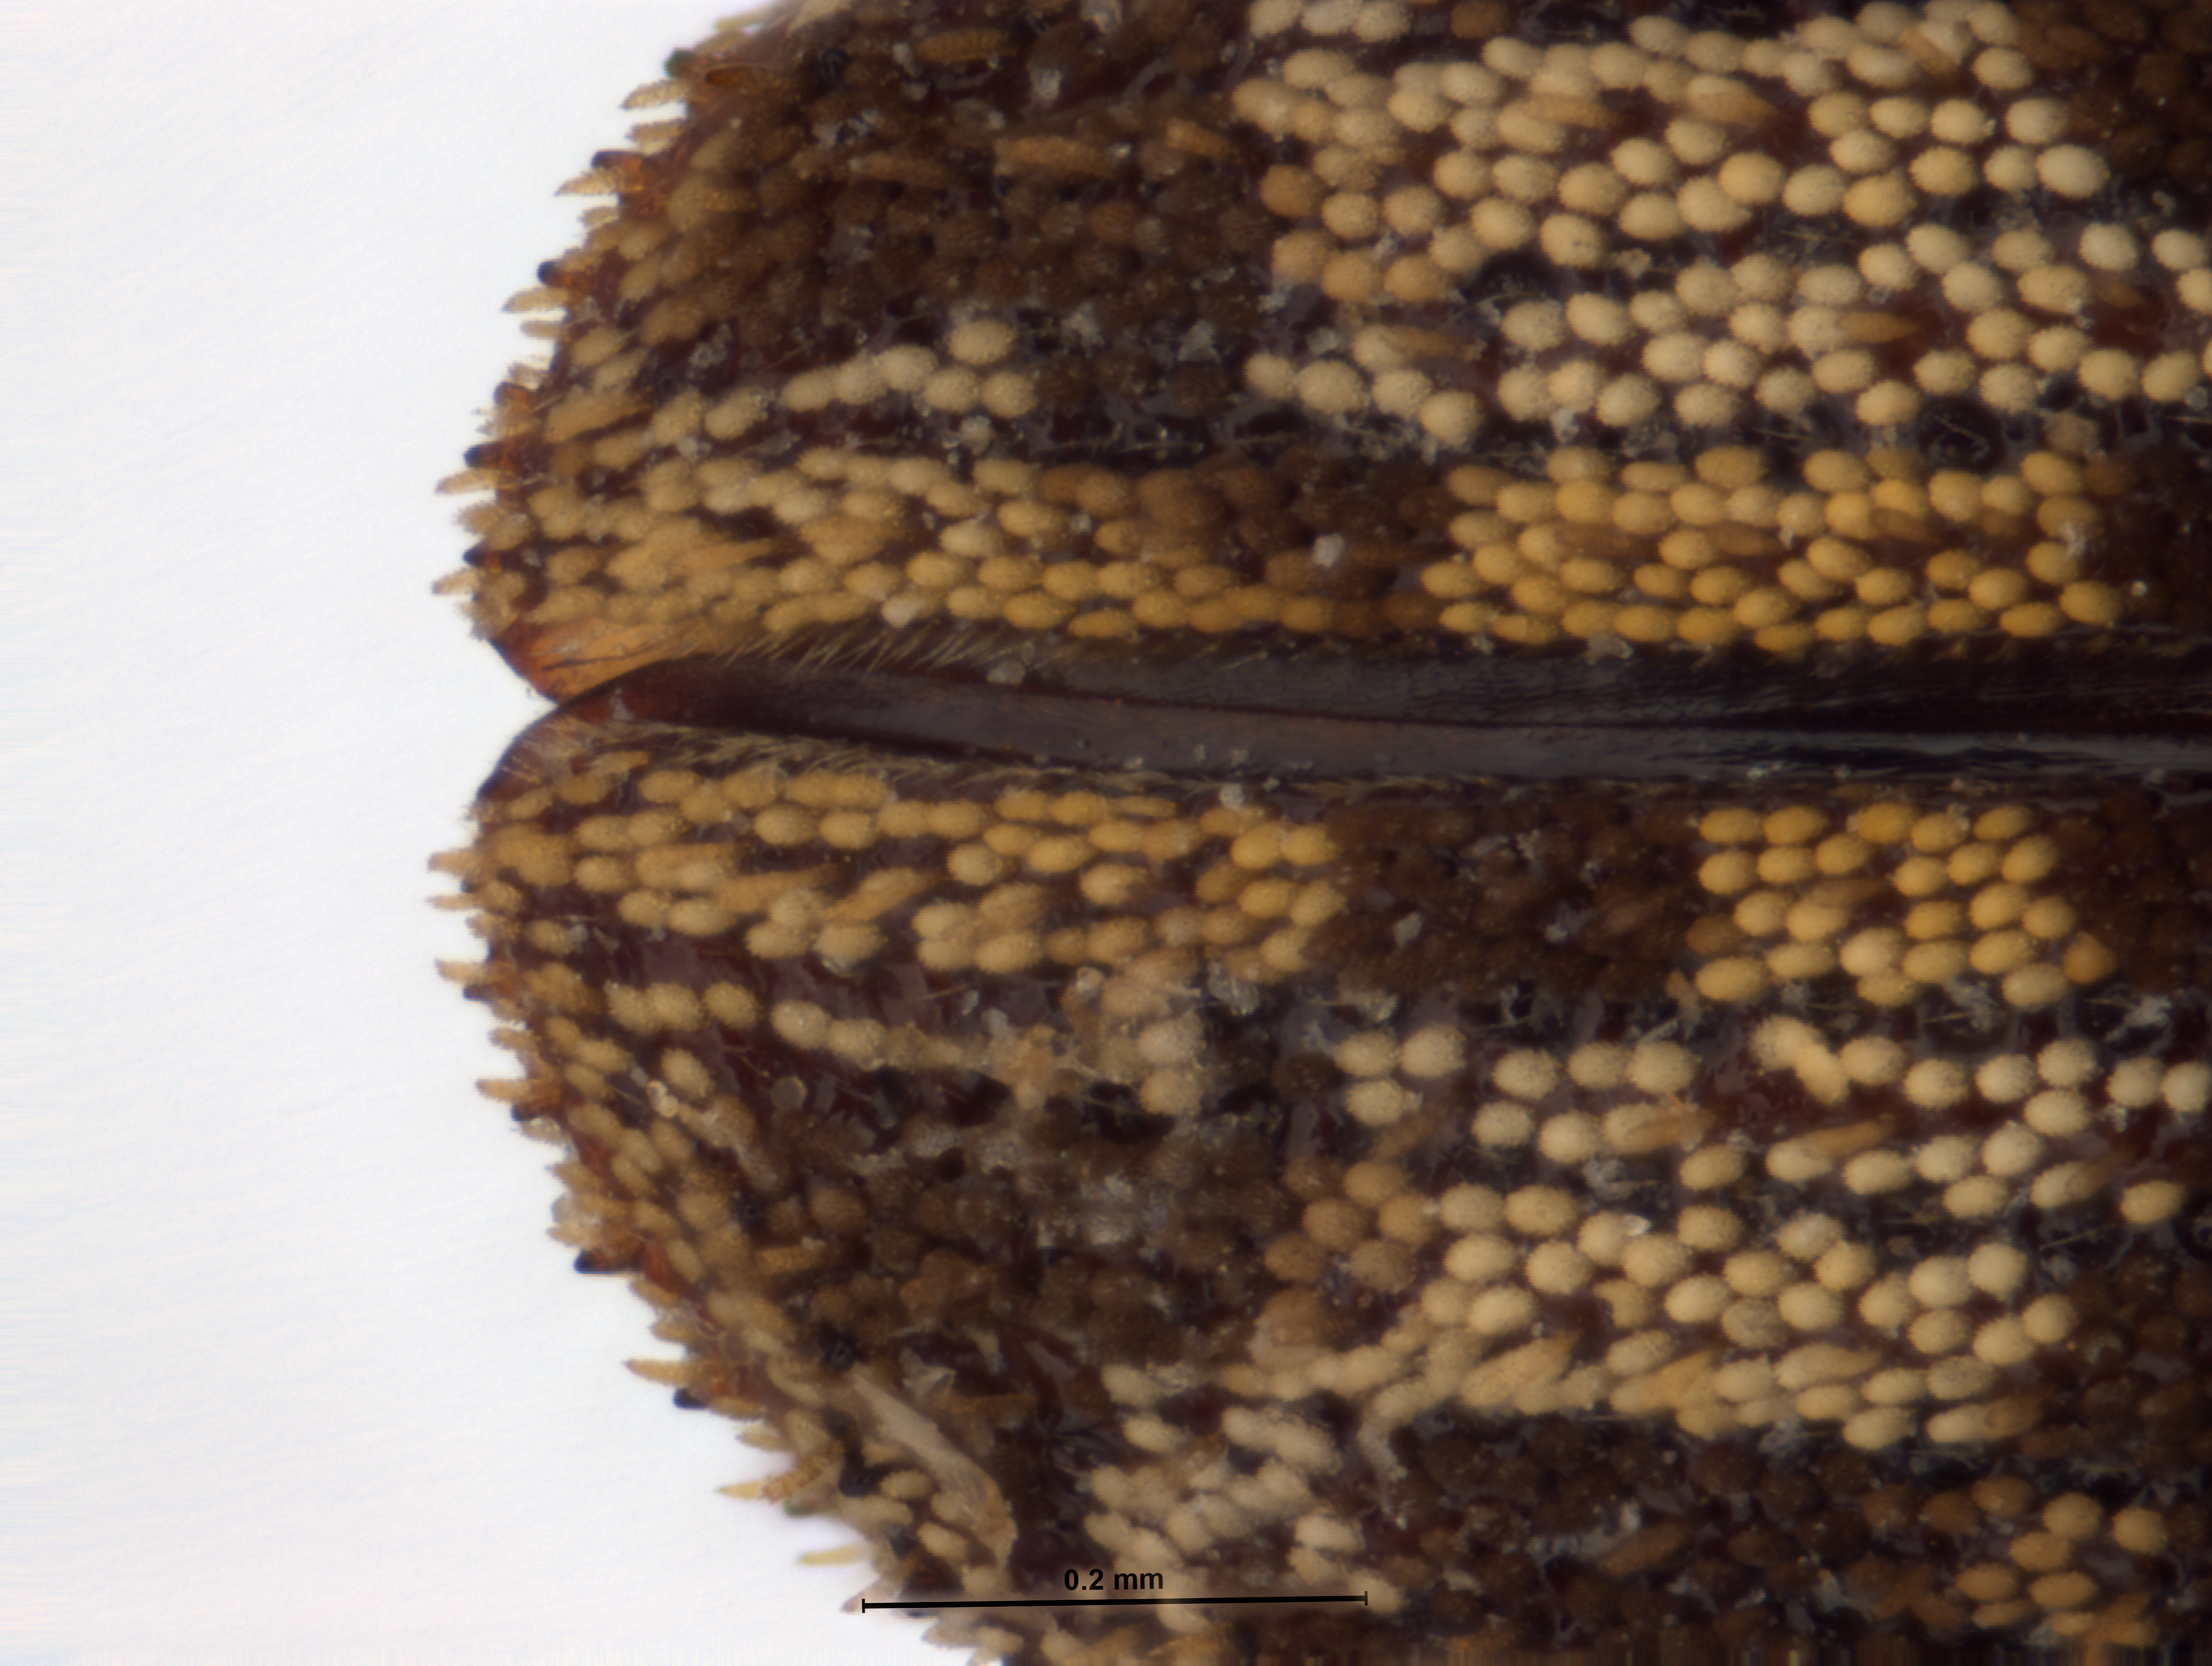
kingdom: Animalia
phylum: Arthropoda
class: Insecta
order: Coleoptera
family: Curculionidae
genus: Chaetoptelius
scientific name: Chaetoptelius mundulus
